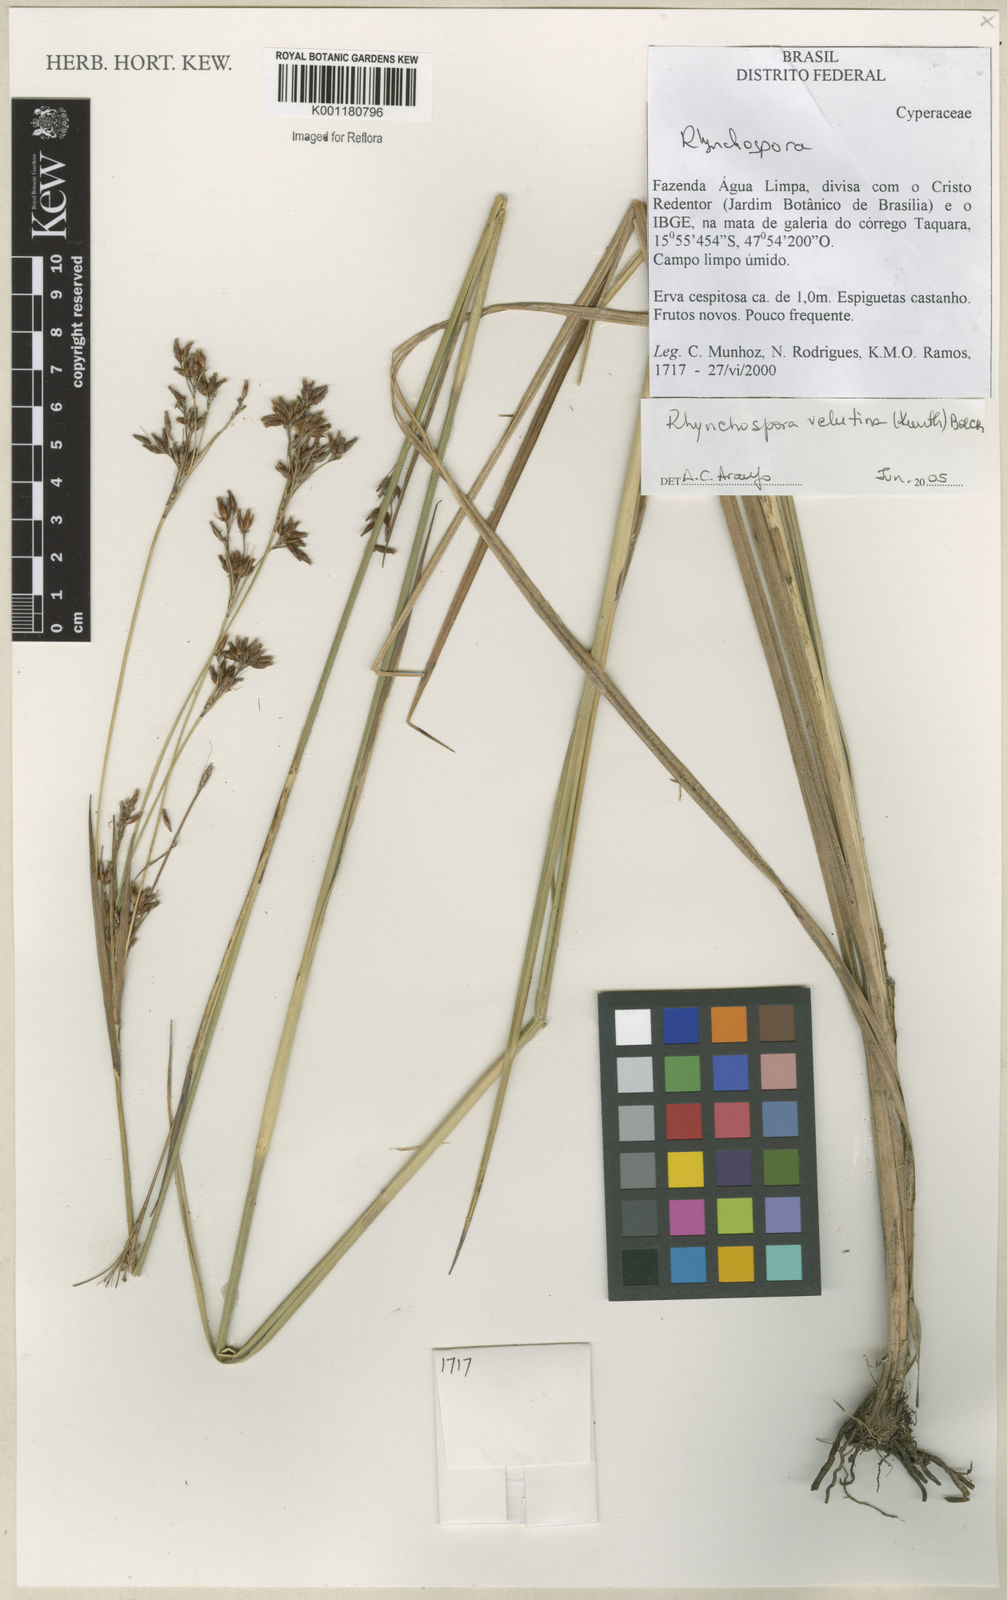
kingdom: Plantae
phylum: Tracheophyta
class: Liliopsida
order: Poales
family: Cyperaceae
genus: Rhynchospora
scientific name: Rhynchospora velutina
